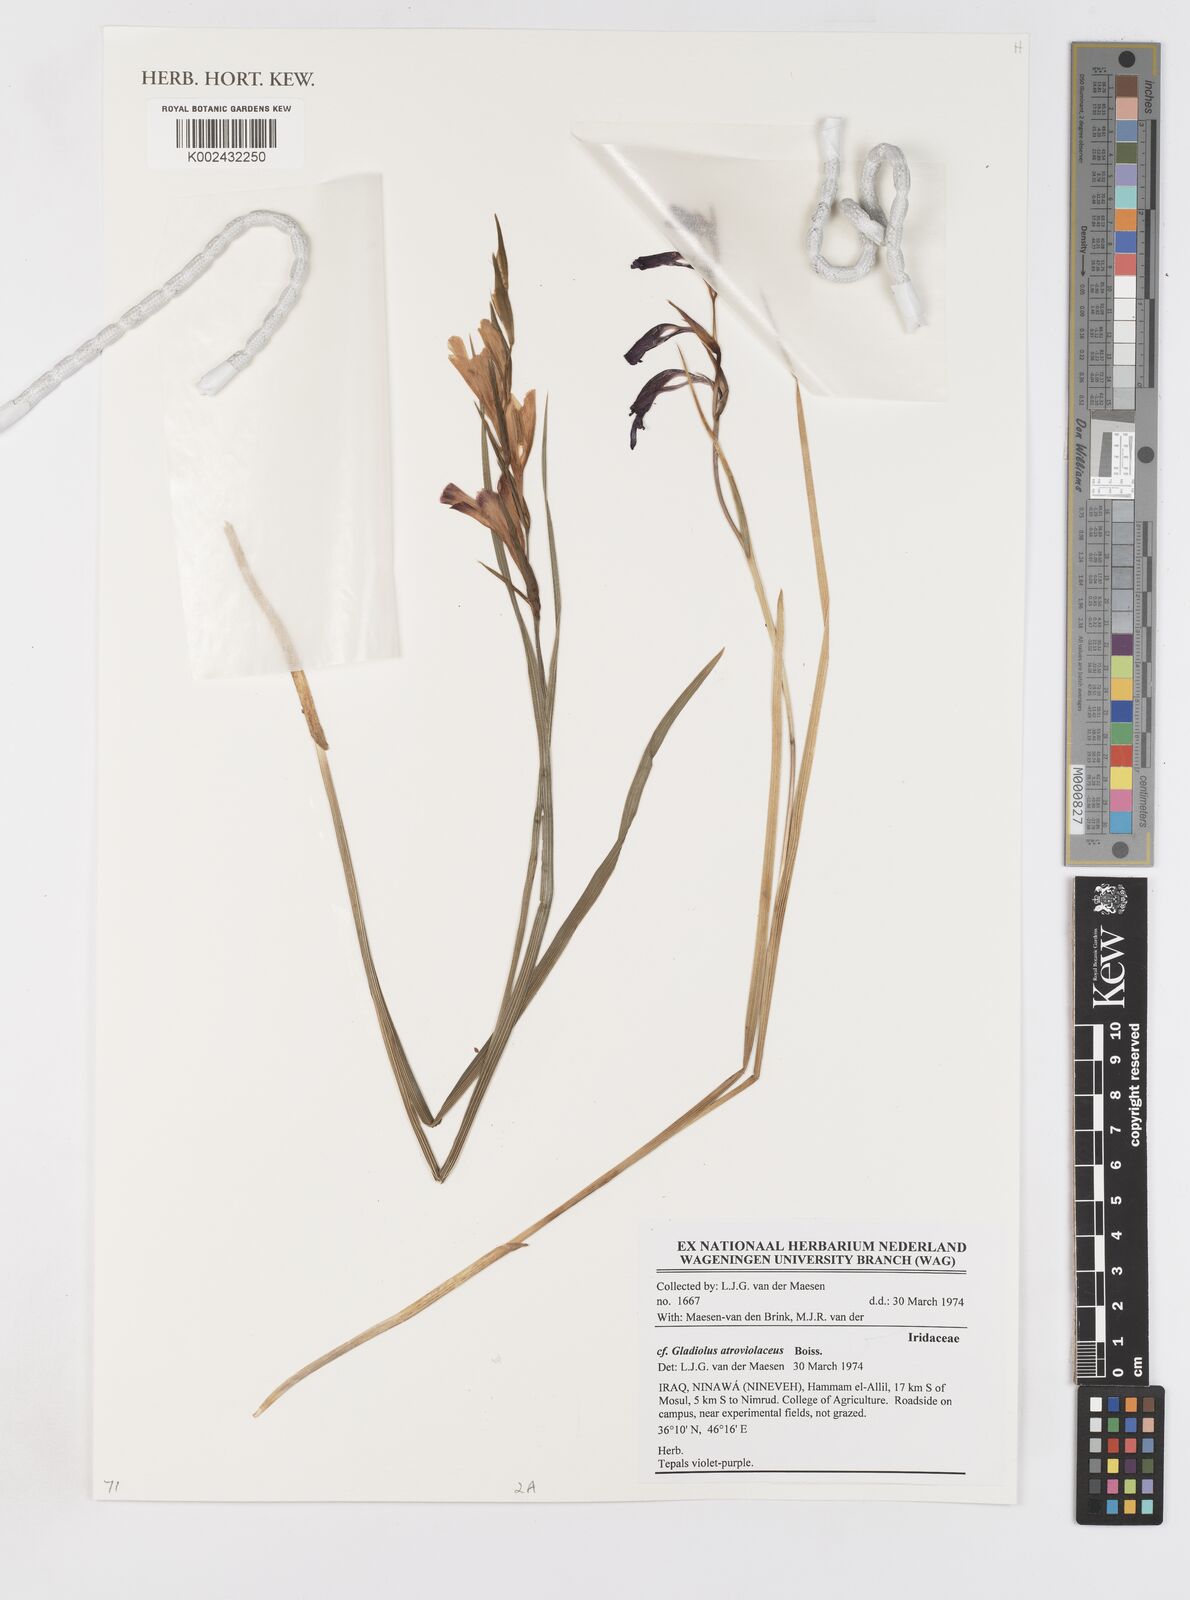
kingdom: Plantae
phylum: Tracheophyta
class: Liliopsida
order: Asparagales
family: Iridaceae
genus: Gladiolus
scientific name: Gladiolus atroviolaceus
